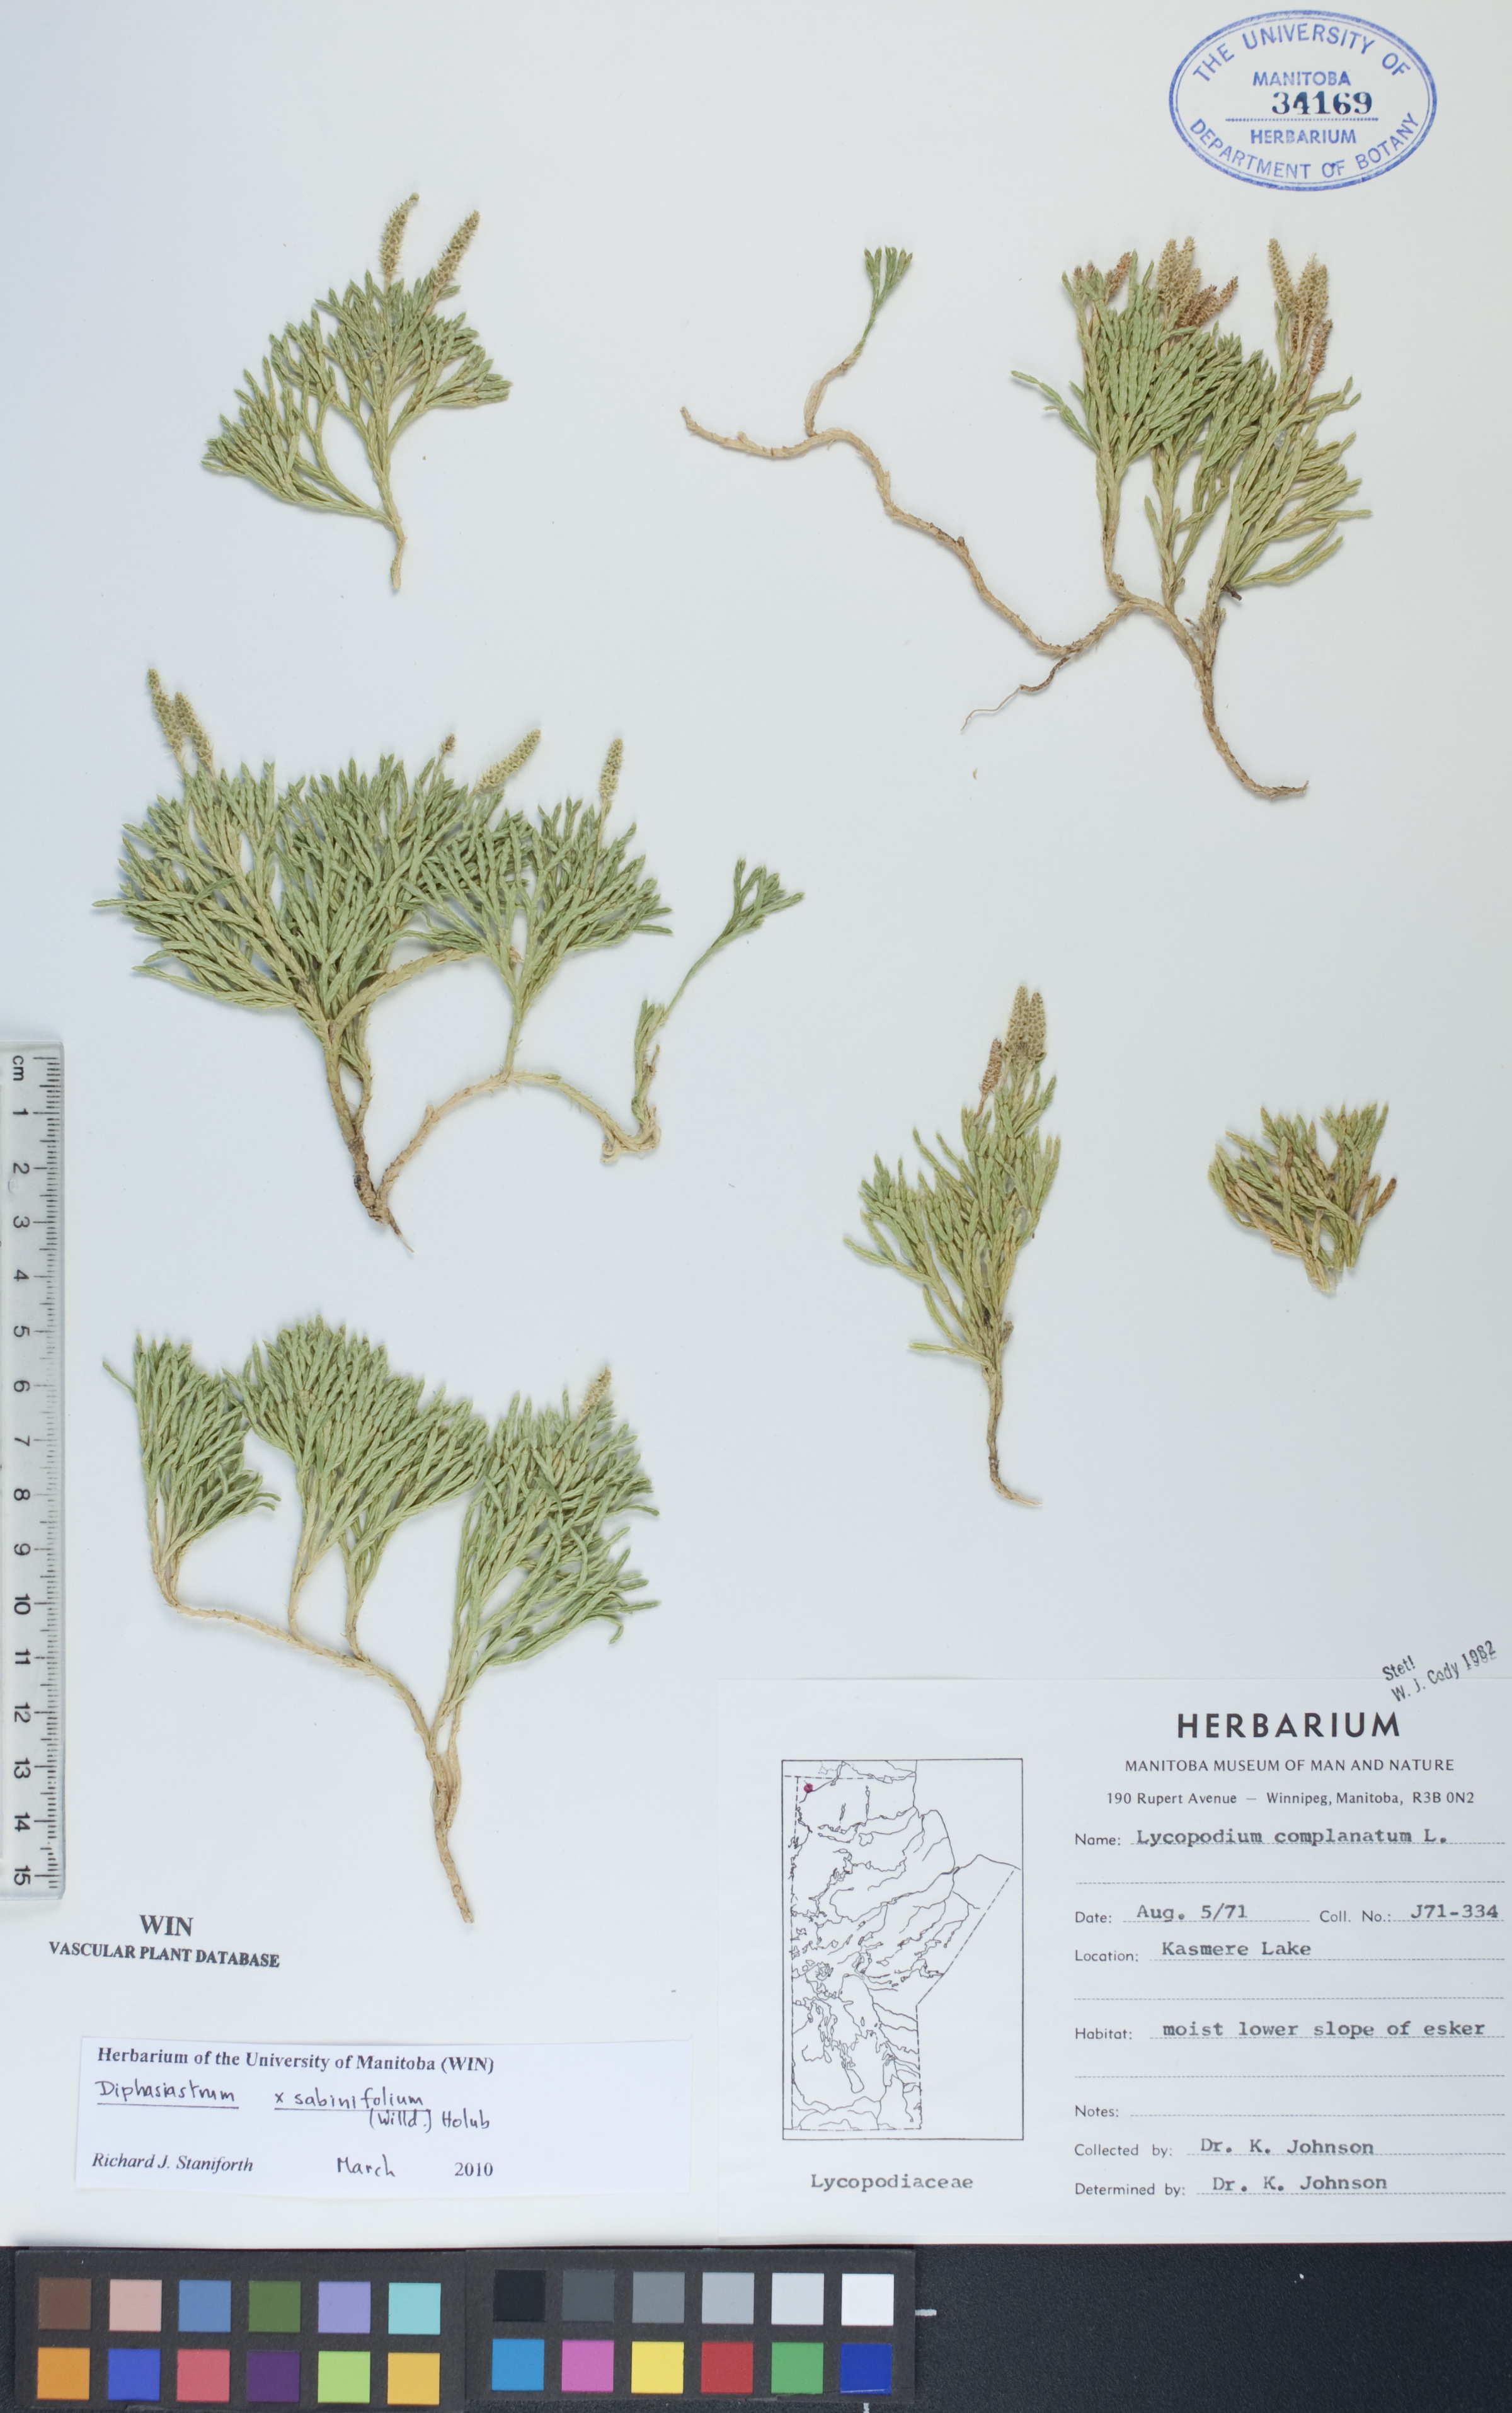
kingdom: Plantae
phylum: Tracheophyta
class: Lycopodiopsida
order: Lycopodiales
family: Lycopodiaceae
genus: Diphasiastrum
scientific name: Diphasiastrum sabinifolium
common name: Juniper clubmoss
